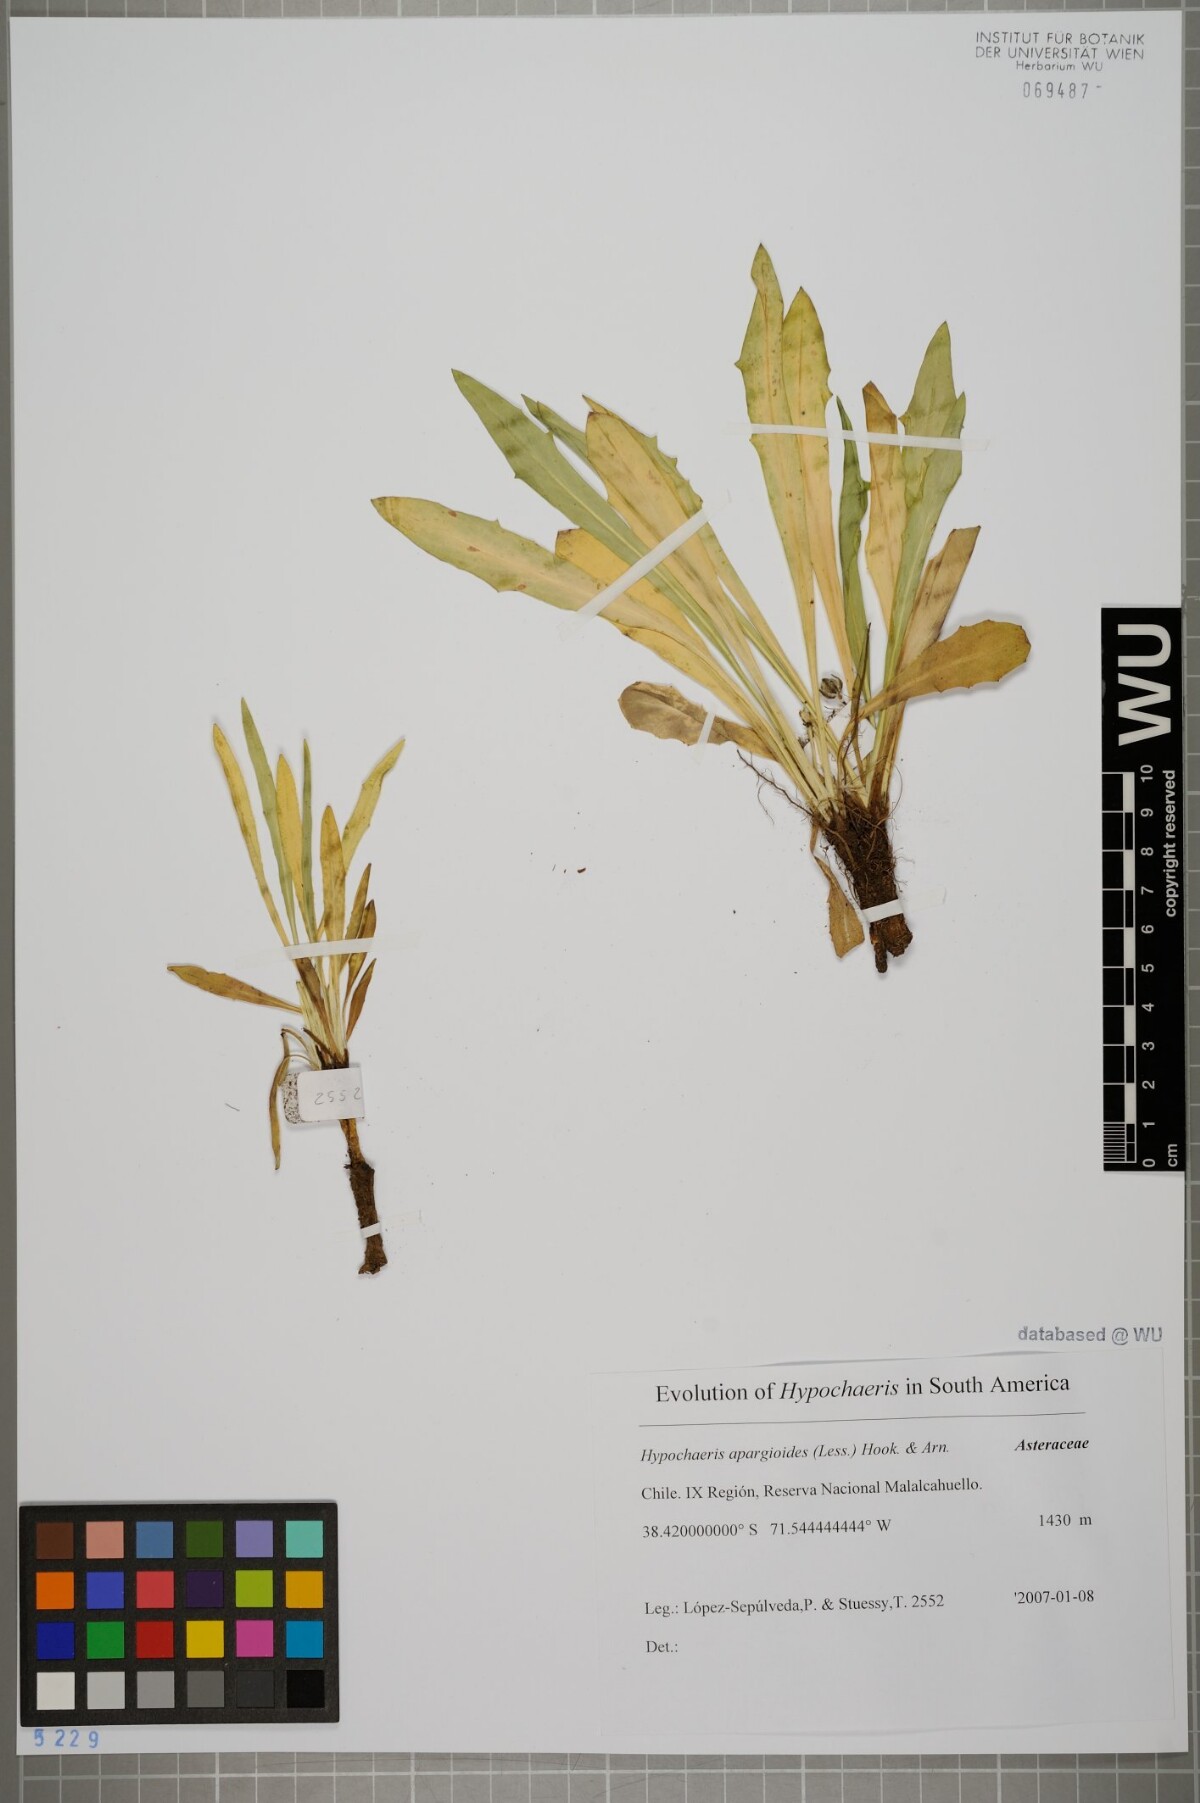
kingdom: Plantae
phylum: Tracheophyta
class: Magnoliopsida
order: Asterales
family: Asteraceae
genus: Hypochaeris
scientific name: Hypochaeris apargioides
